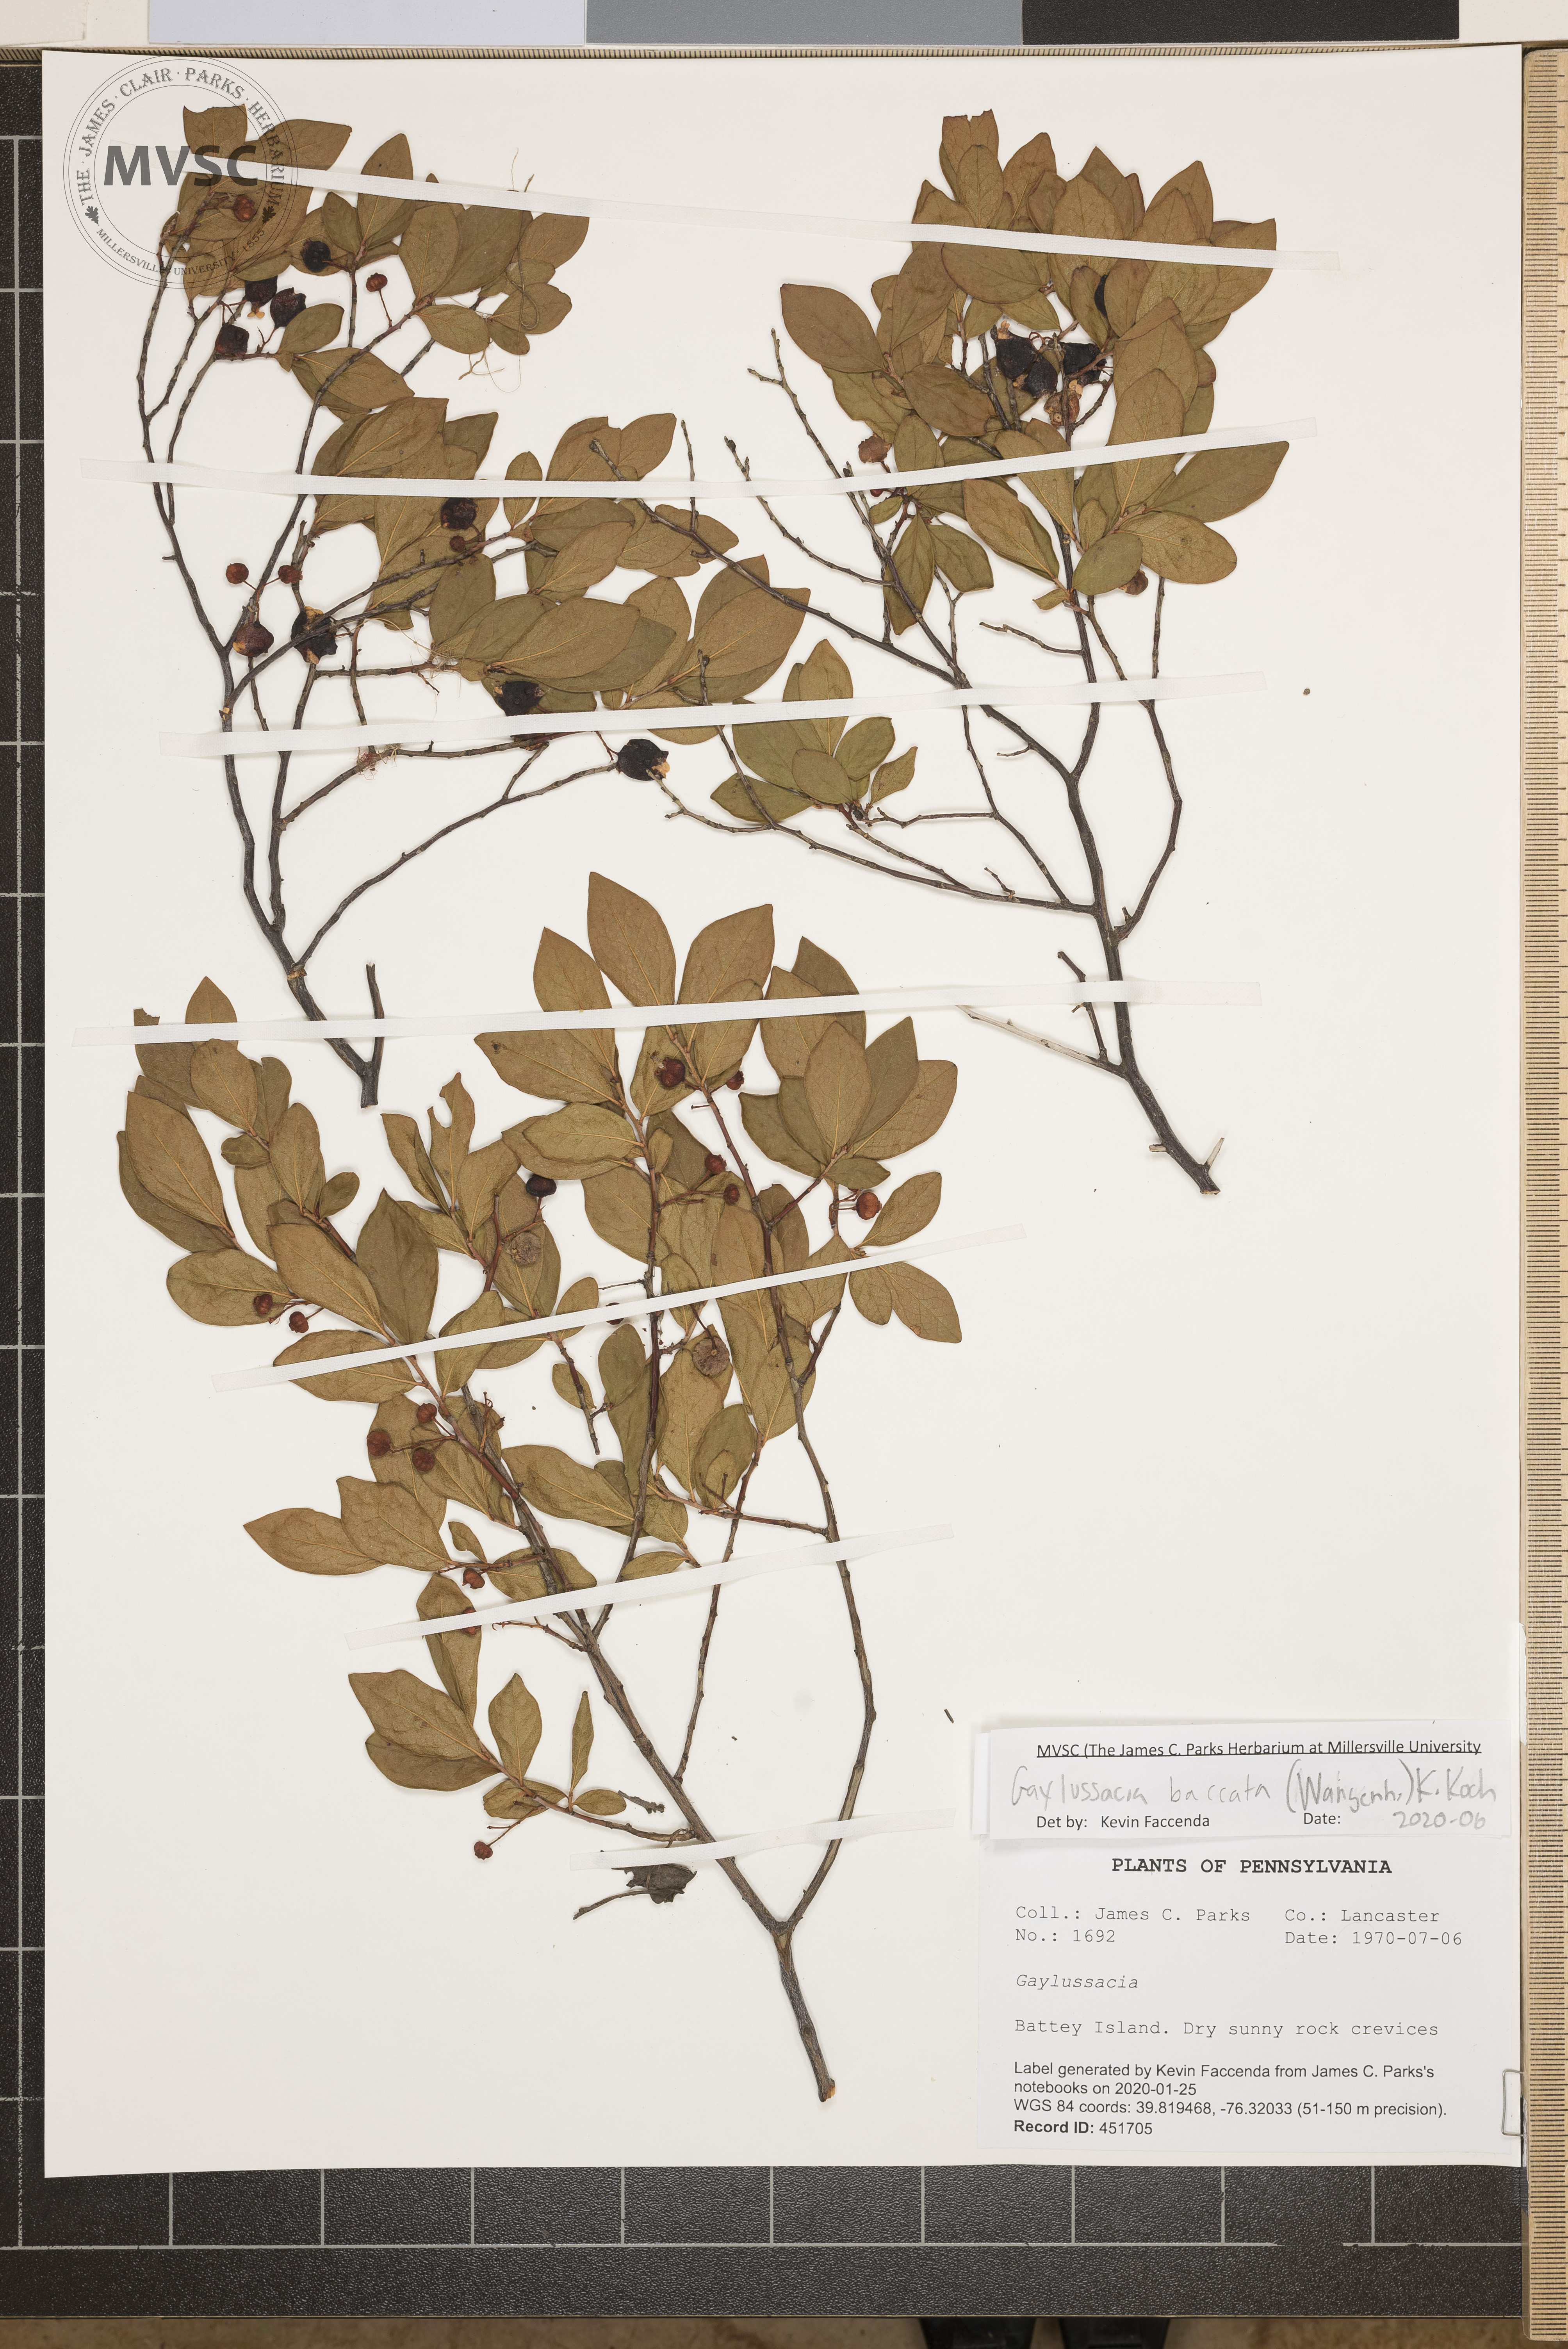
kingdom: Plantae
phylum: Tracheophyta
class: Magnoliopsida
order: Ericales
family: Ericaceae
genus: Gaylussacia
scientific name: Gaylussacia baccata
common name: Black huckleberry
